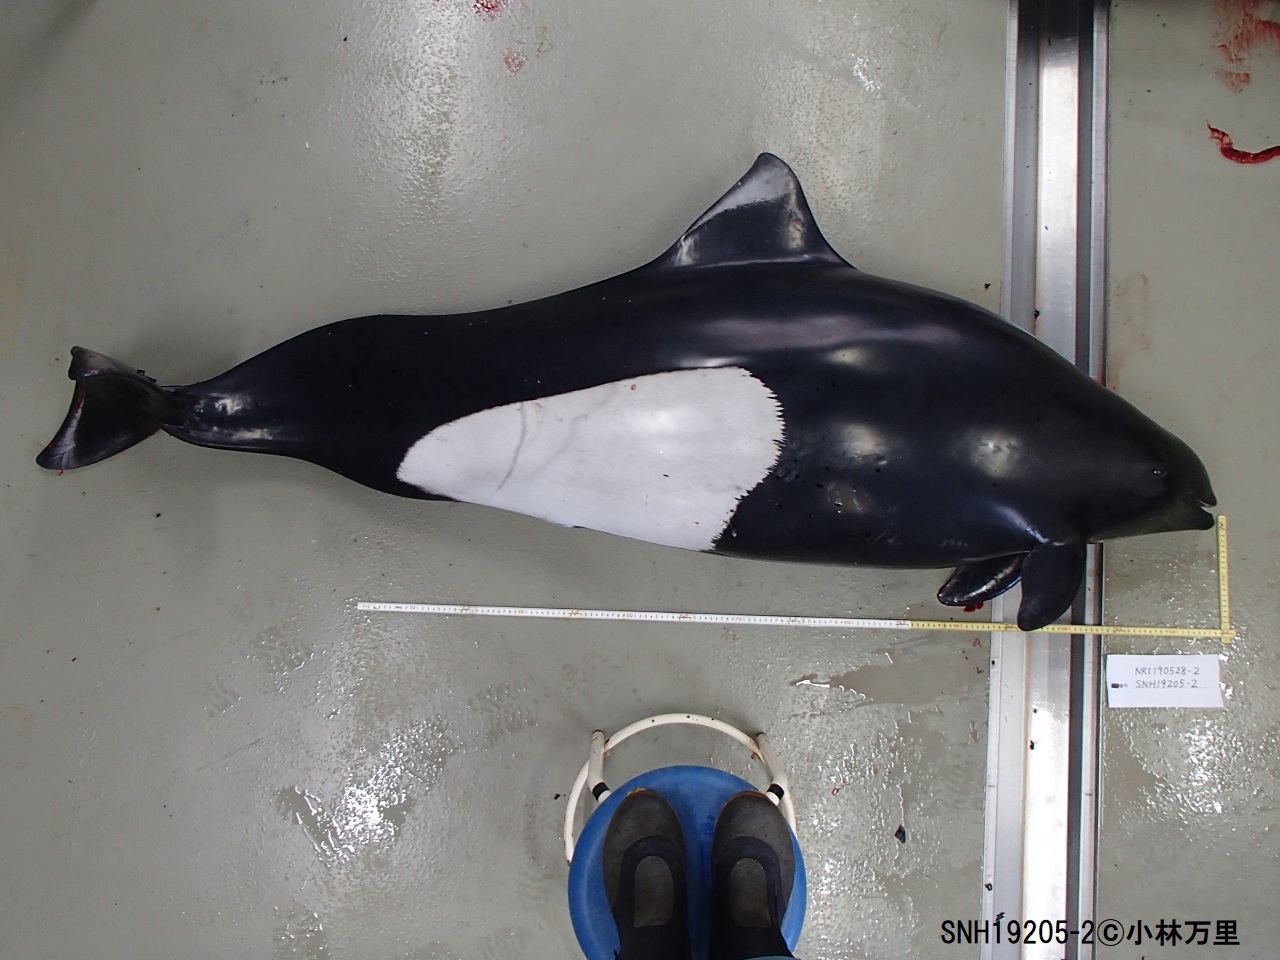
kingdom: Animalia
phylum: Chordata
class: Mammalia
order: Cetacea
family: Phocoenidae
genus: Phocoenoides
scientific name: Phocoenoides dalli
